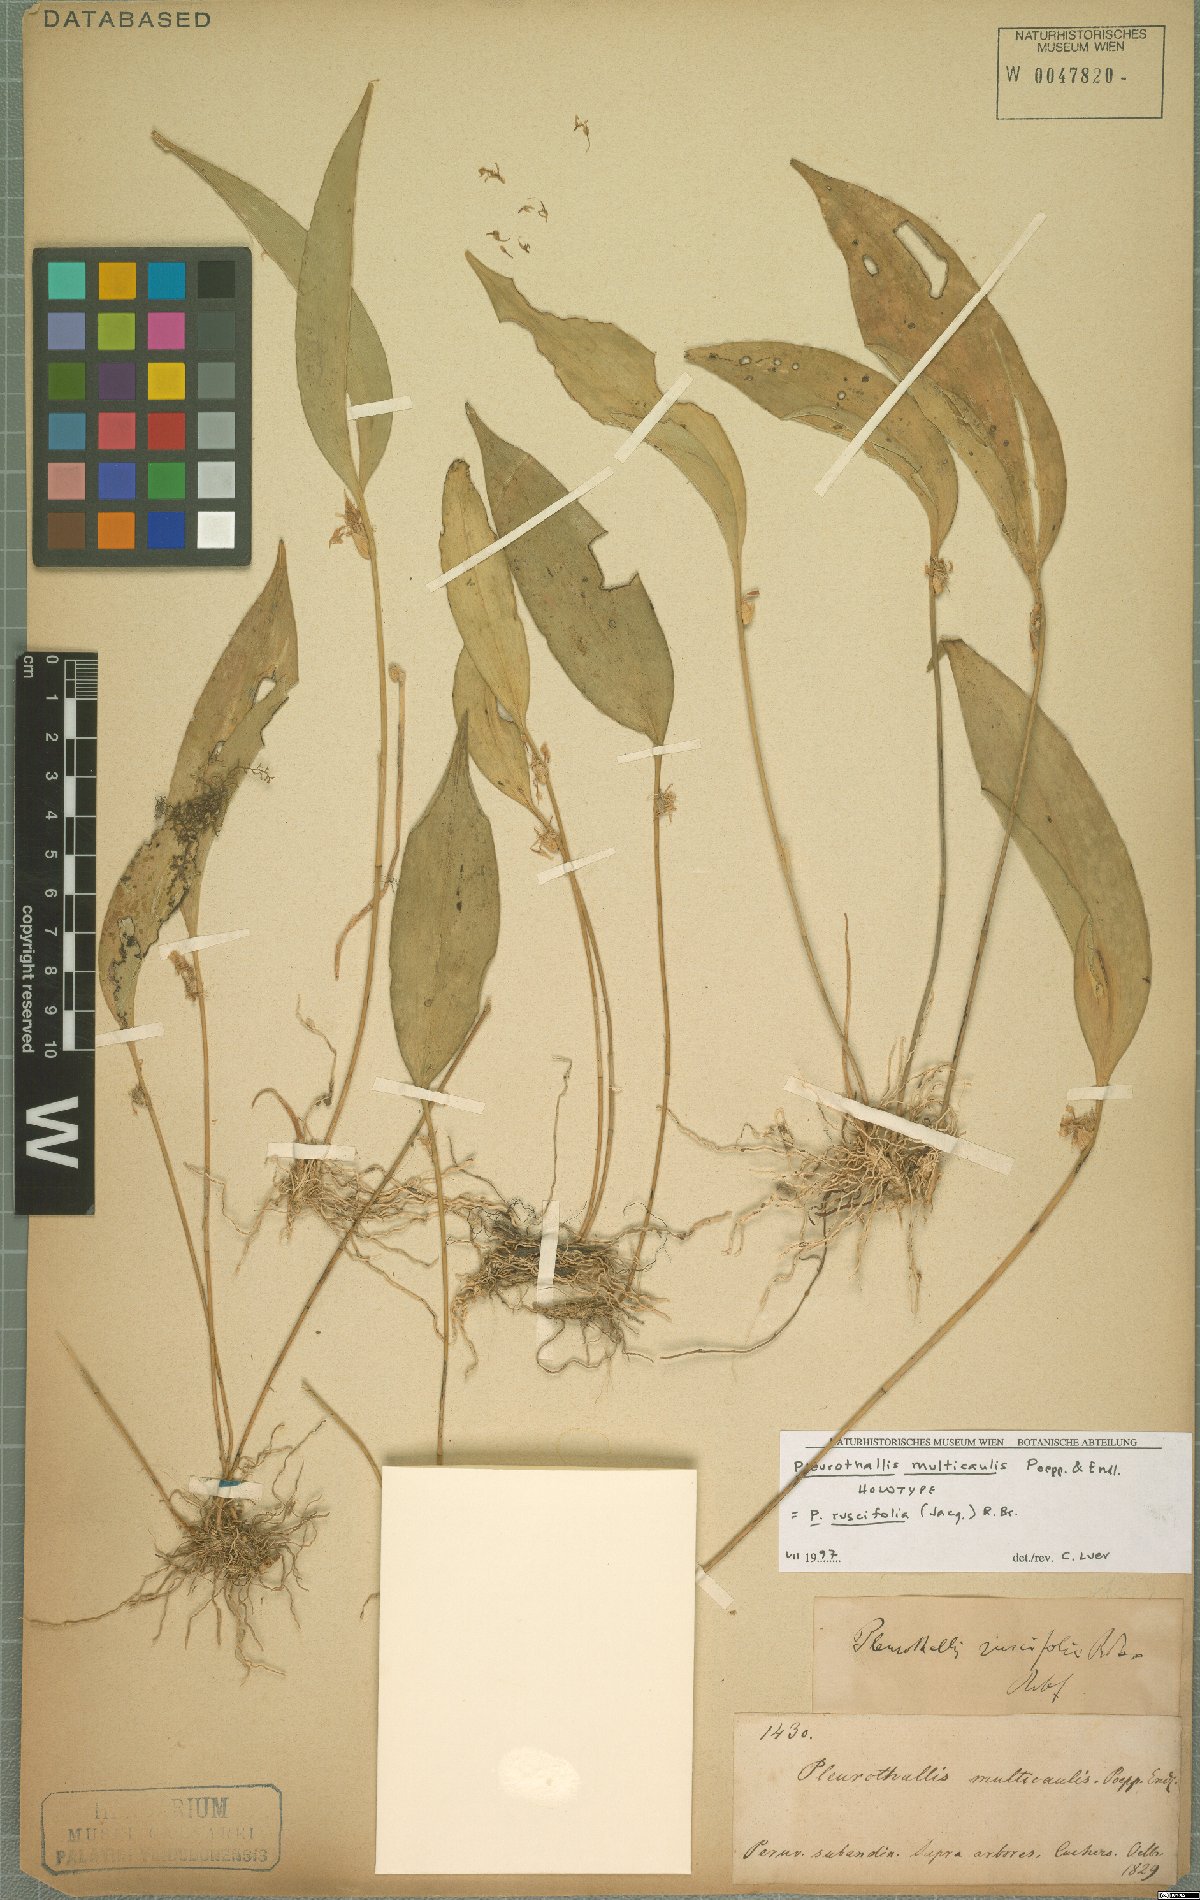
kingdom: Plantae
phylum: Tracheophyta
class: Liliopsida
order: Asparagales
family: Orchidaceae
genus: Pleurothallis
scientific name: Pleurothallis ruscifolia
